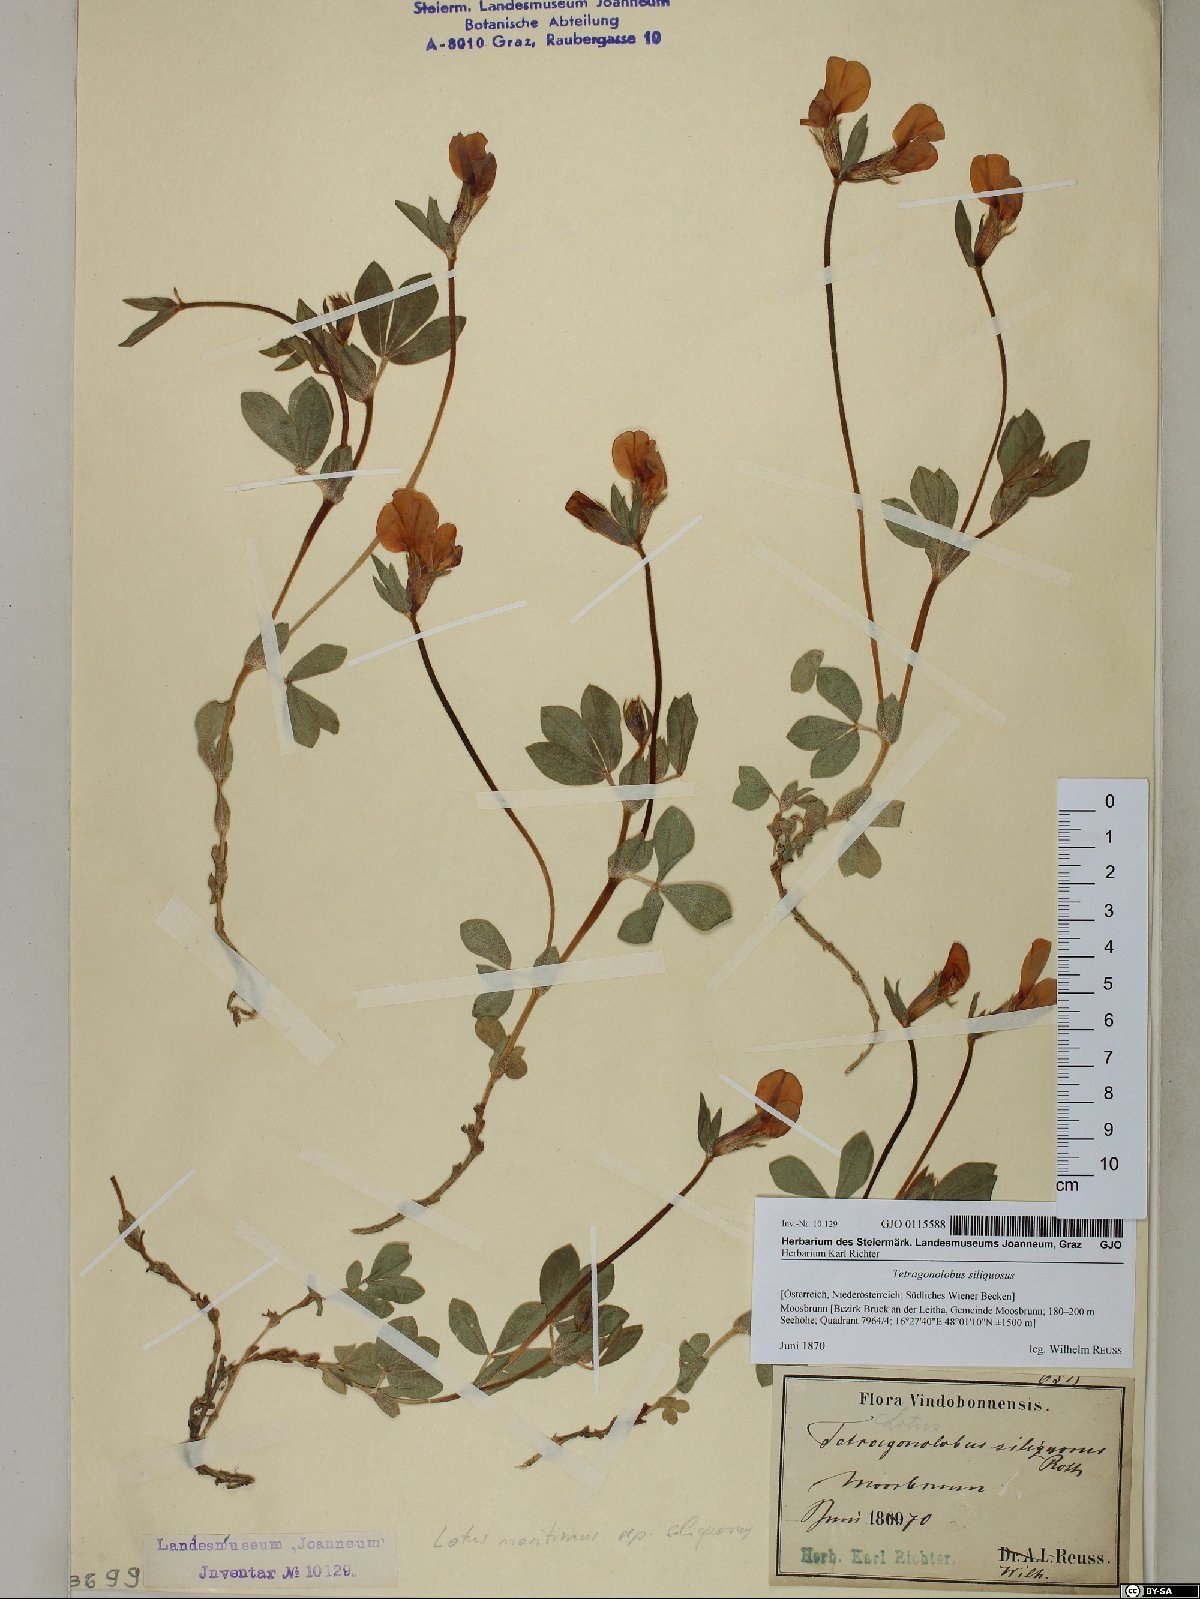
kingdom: Plantae
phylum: Tracheophyta
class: Magnoliopsida
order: Fabales
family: Fabaceae
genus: Lathyrus
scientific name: Lathyrus inconspicuus
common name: Inconspicuous pea
